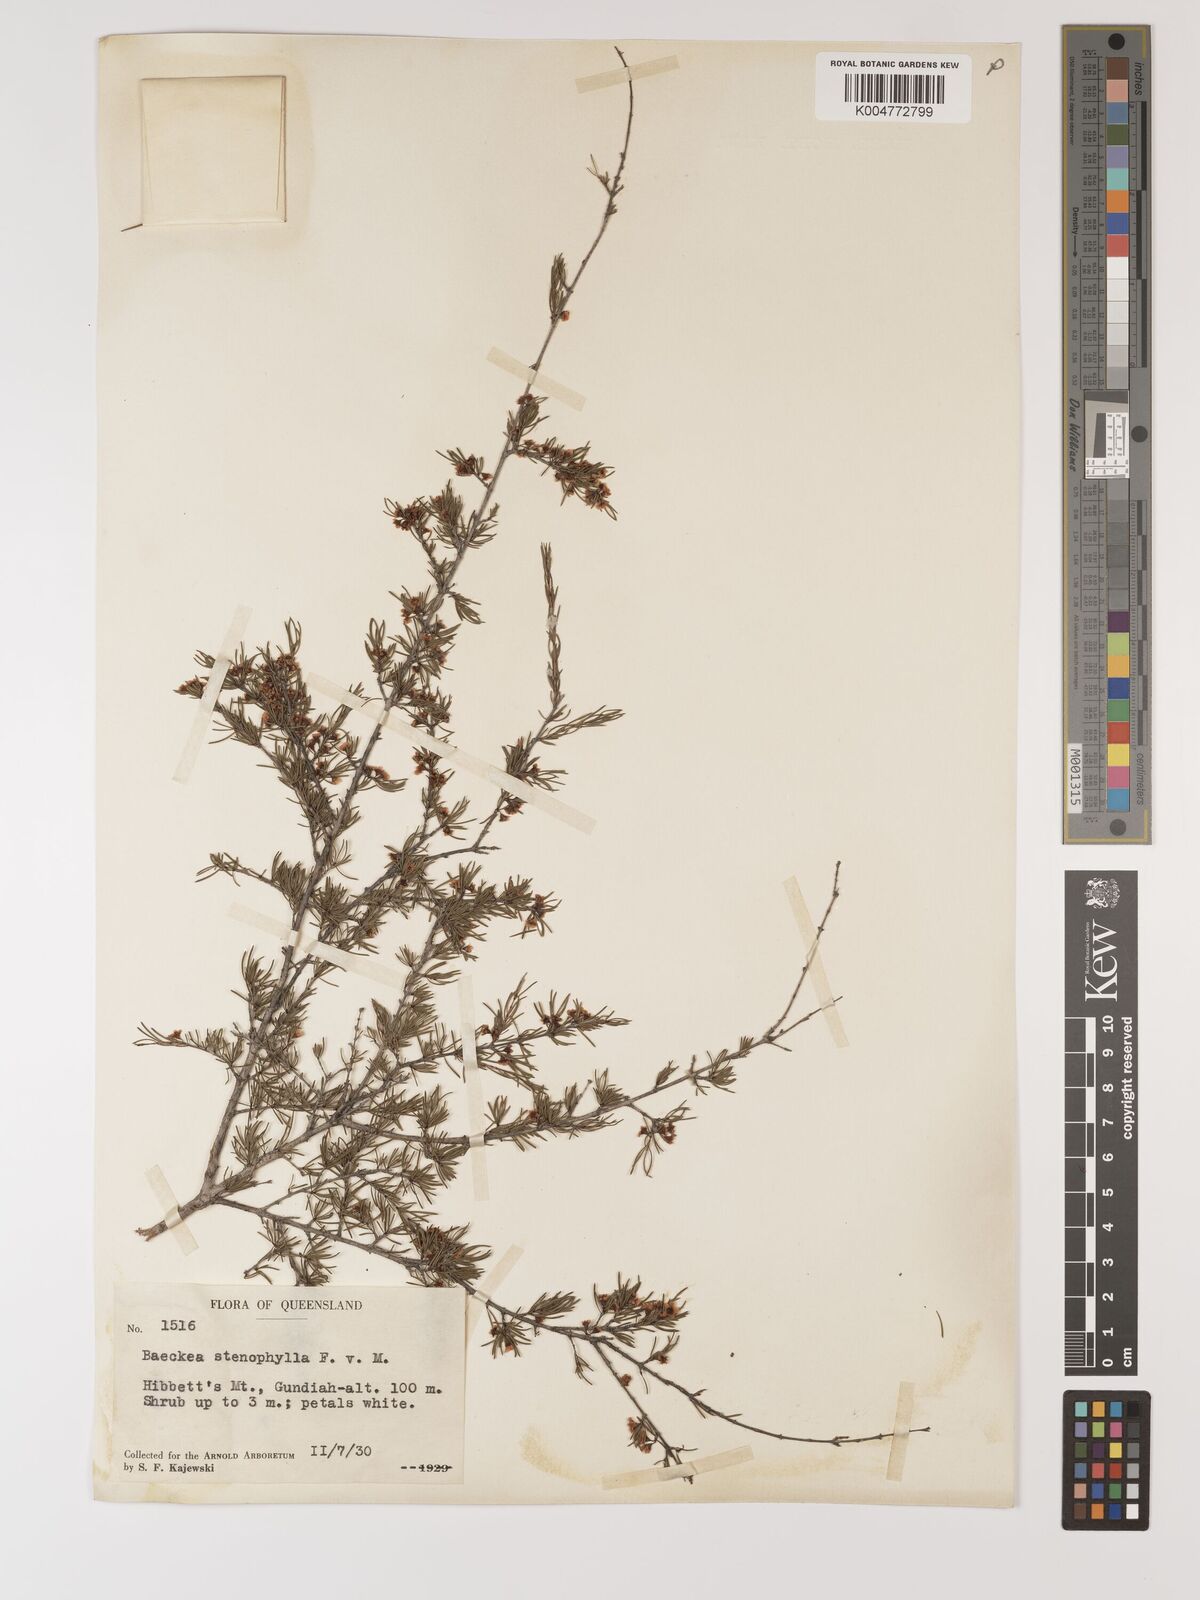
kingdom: Plantae
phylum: Tracheophyta
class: Magnoliopsida
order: Myrtales
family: Myrtaceae
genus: Baeckea
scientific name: Baeckea frutescens
